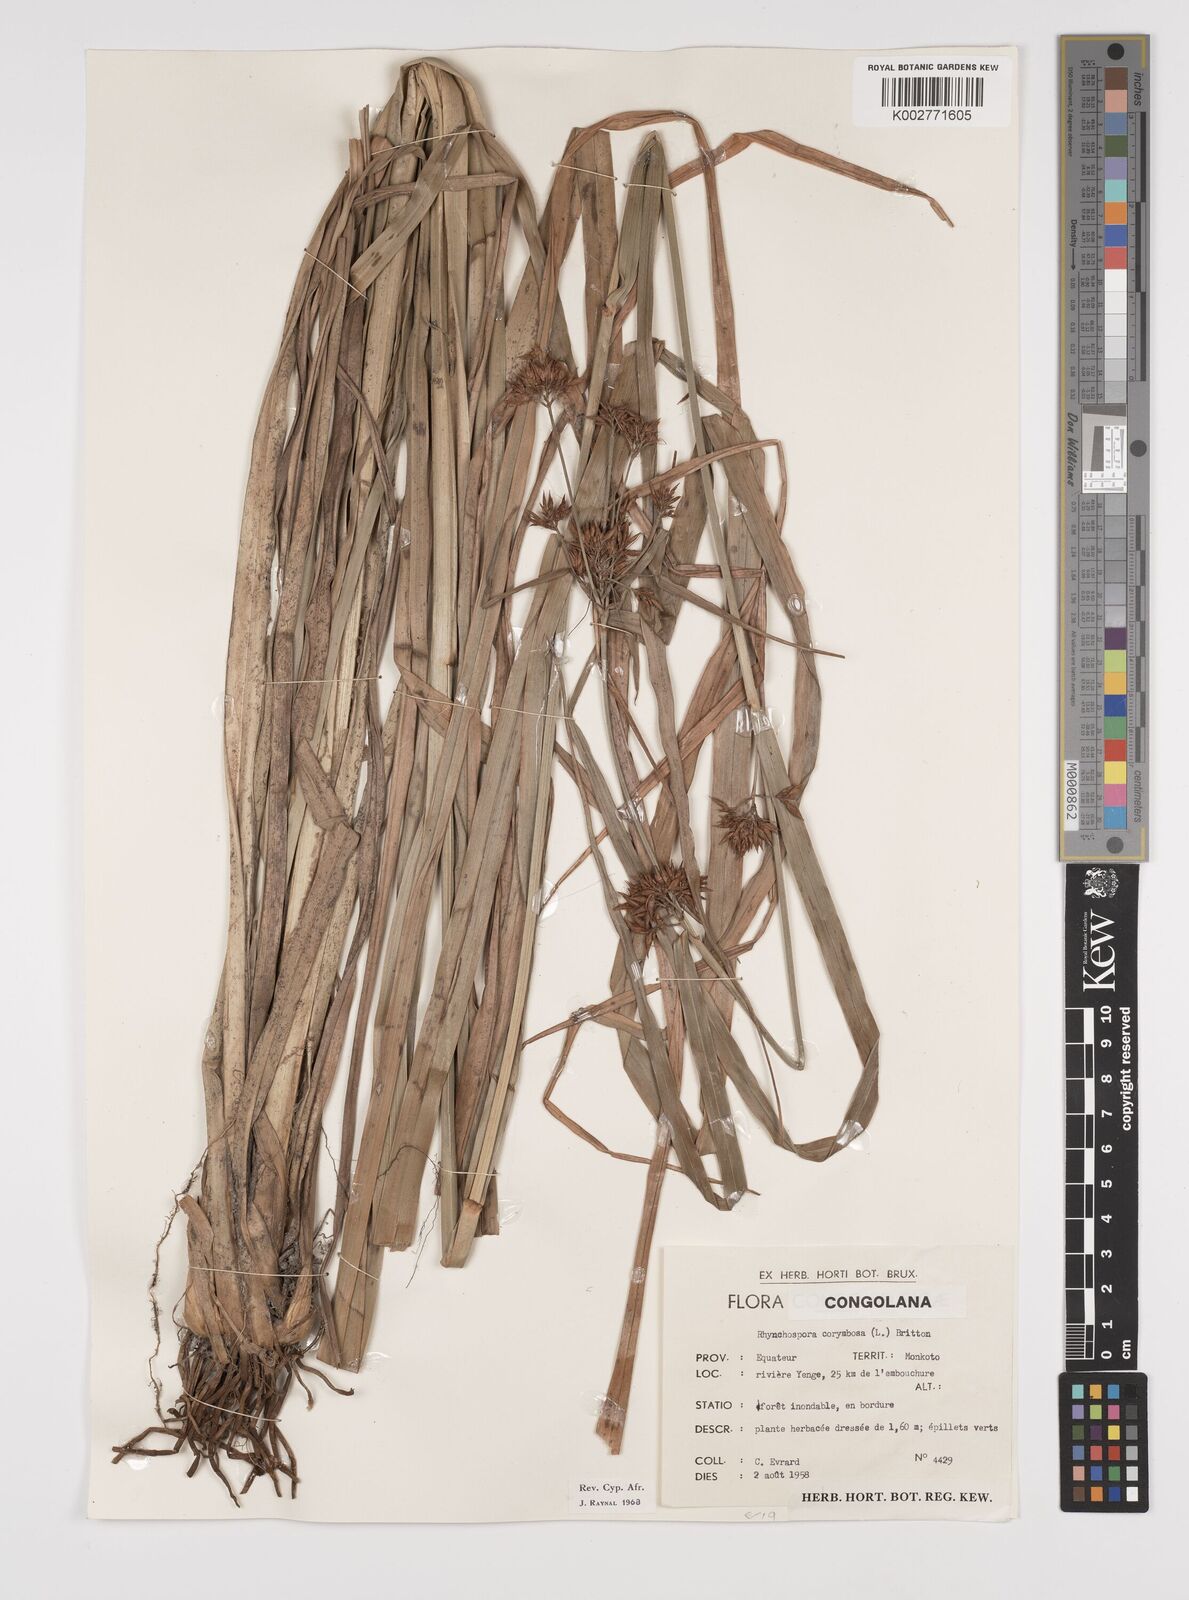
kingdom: Plantae
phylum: Tracheophyta
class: Liliopsida
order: Poales
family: Cyperaceae
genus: Rhynchospora
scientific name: Rhynchospora corymbosa
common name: Golden beak sedge
